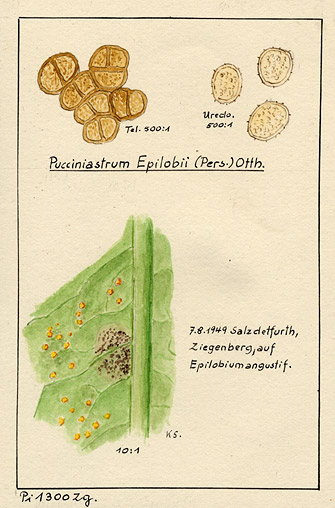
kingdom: Plantae
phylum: Tracheophyta
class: Magnoliopsida
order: Myrtales
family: Onagraceae
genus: Chamaenerion
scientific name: Chamaenerion
